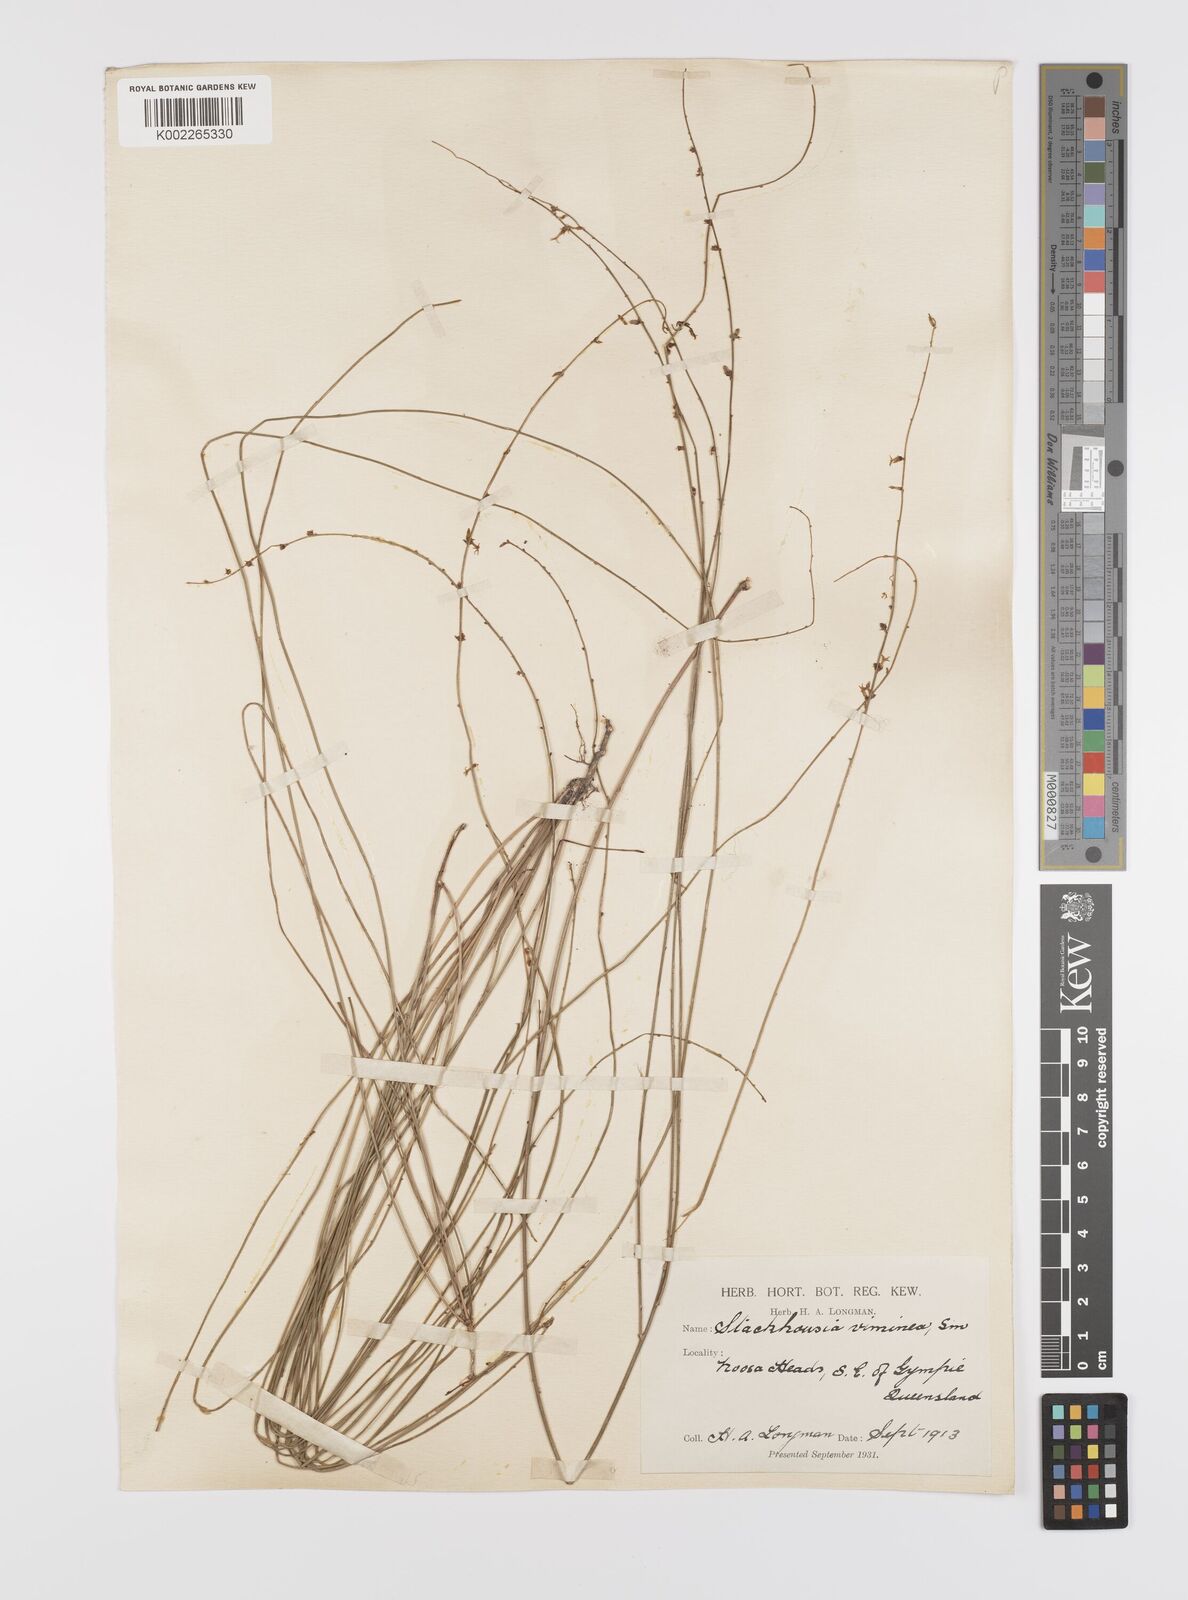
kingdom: Plantae
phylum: Tracheophyta
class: Magnoliopsida
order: Celastrales
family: Celastraceae
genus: Stackhousia
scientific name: Stackhousia viminea
